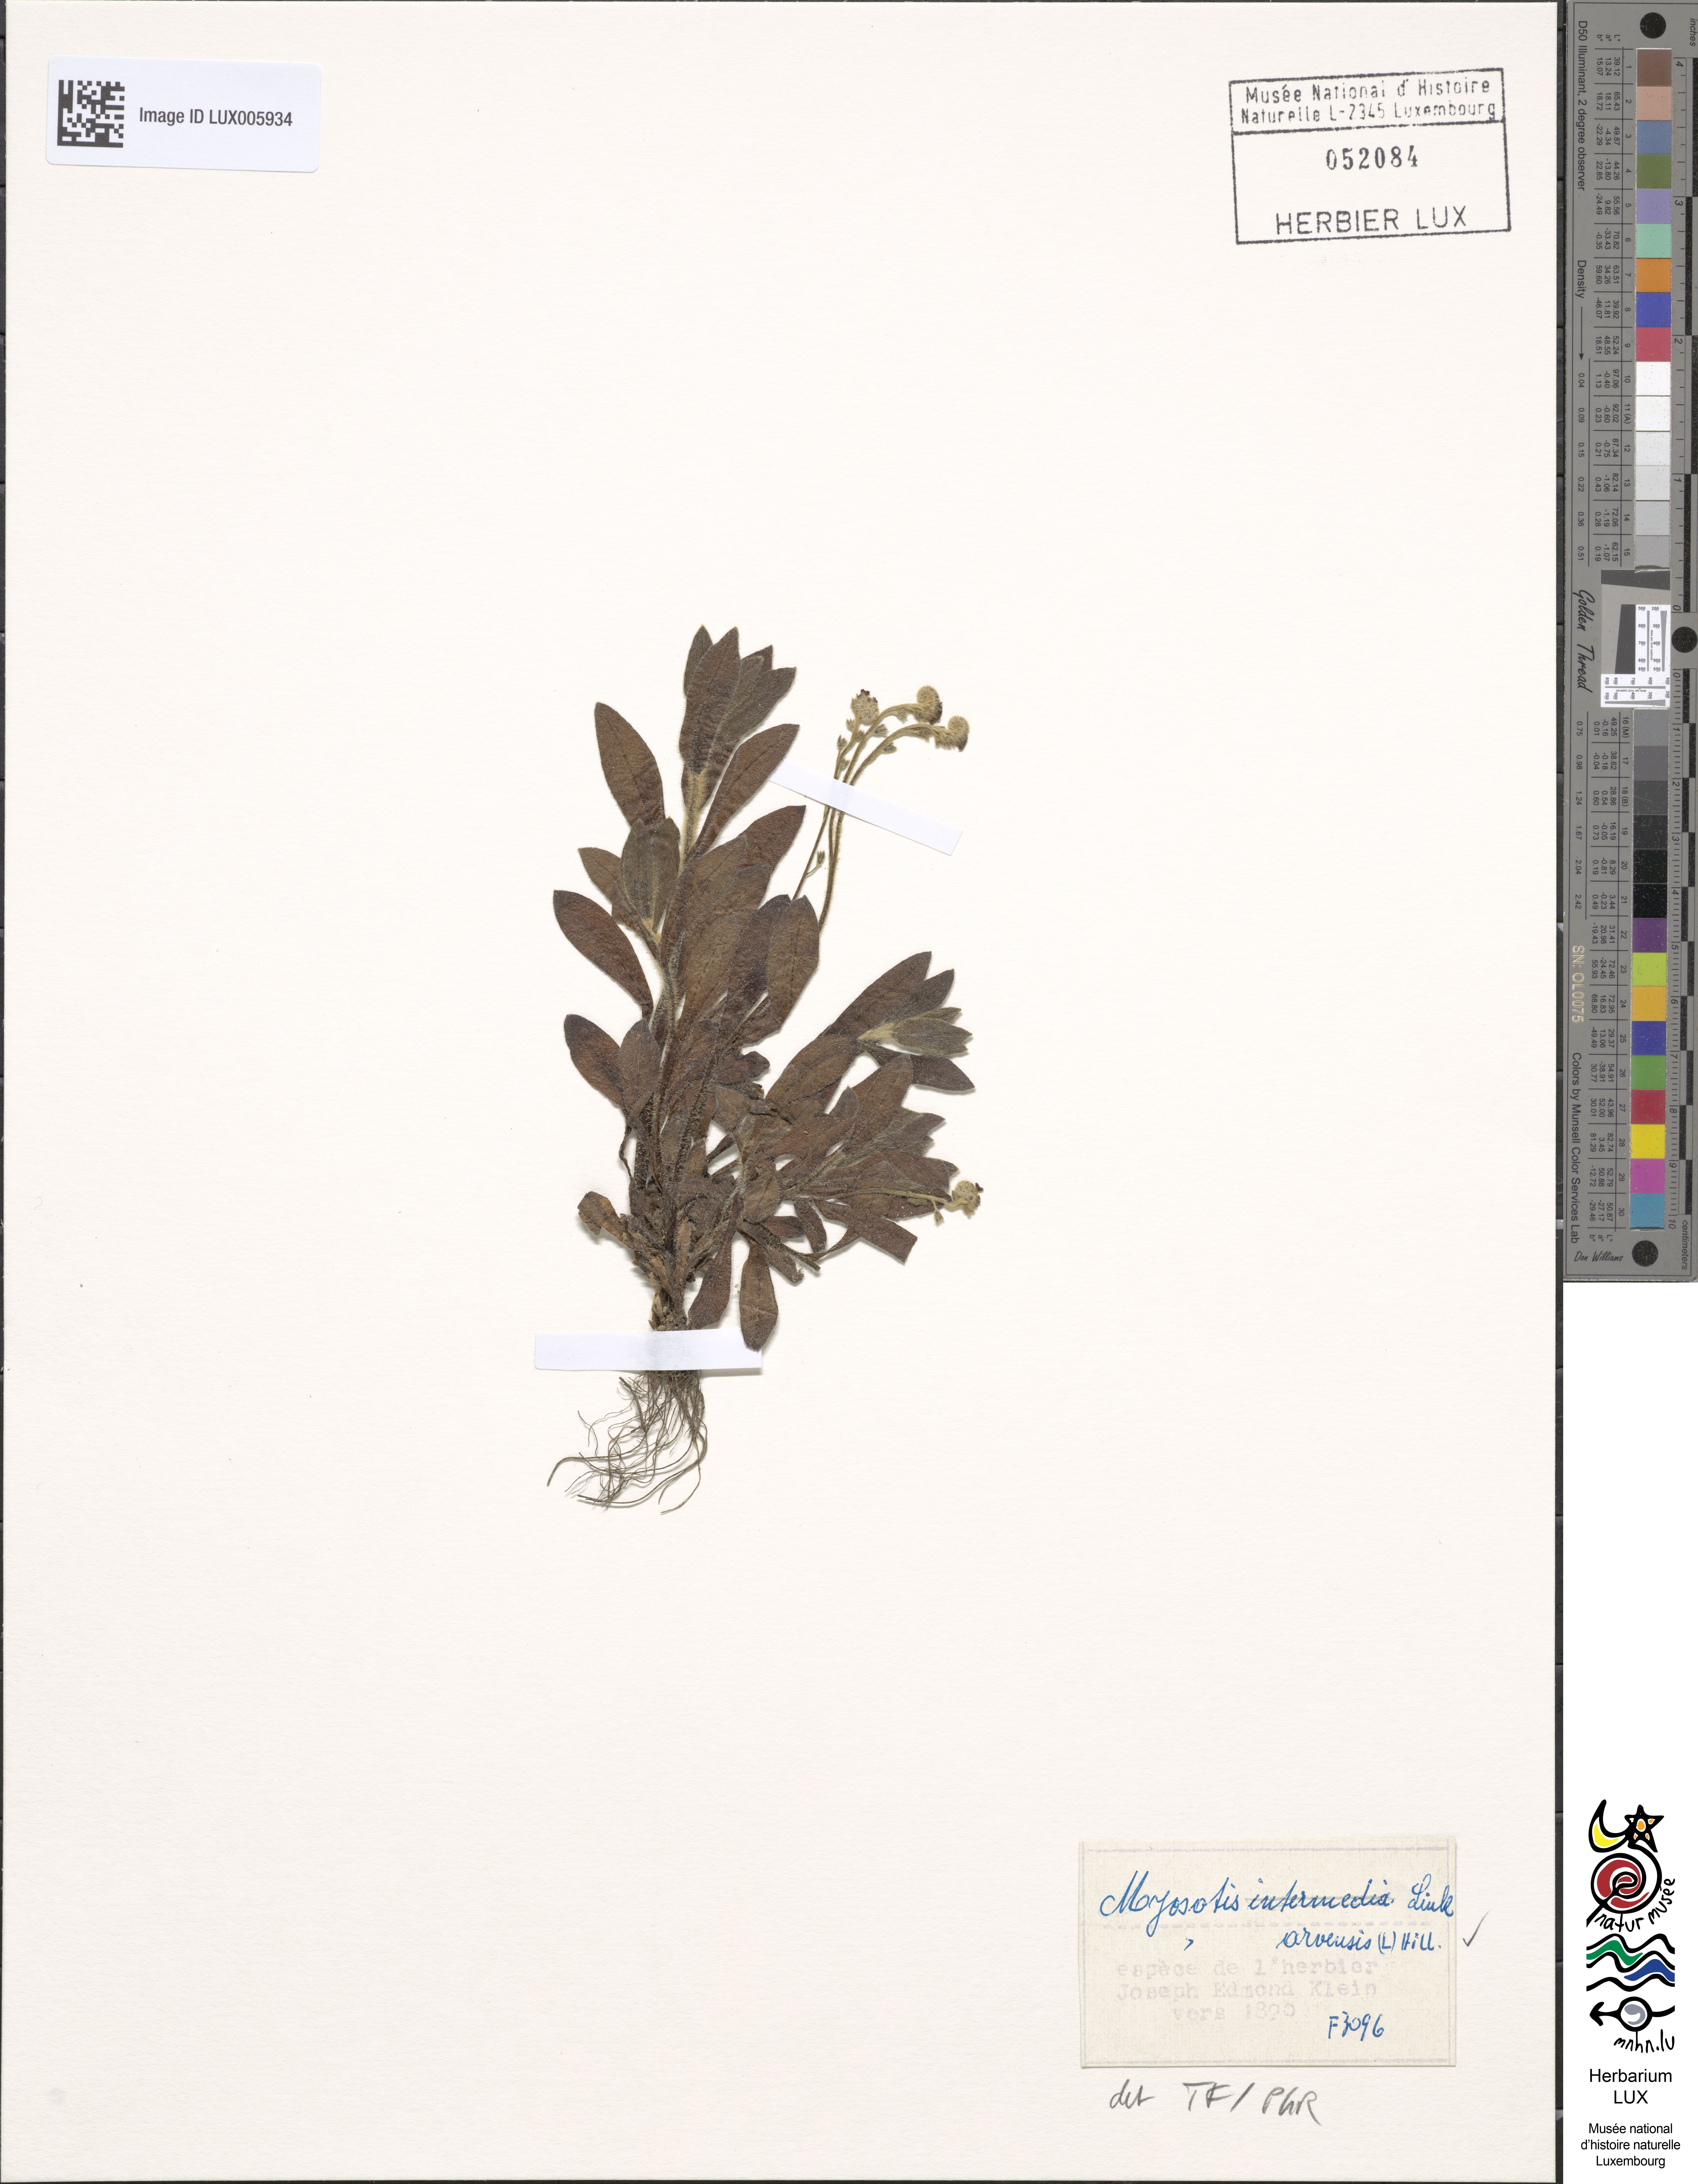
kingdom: Plantae
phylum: Tracheophyta
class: Magnoliopsida
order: Boraginales
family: Boraginaceae
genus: Myosotis
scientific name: Myosotis arvensis
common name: Field forget-me-not
